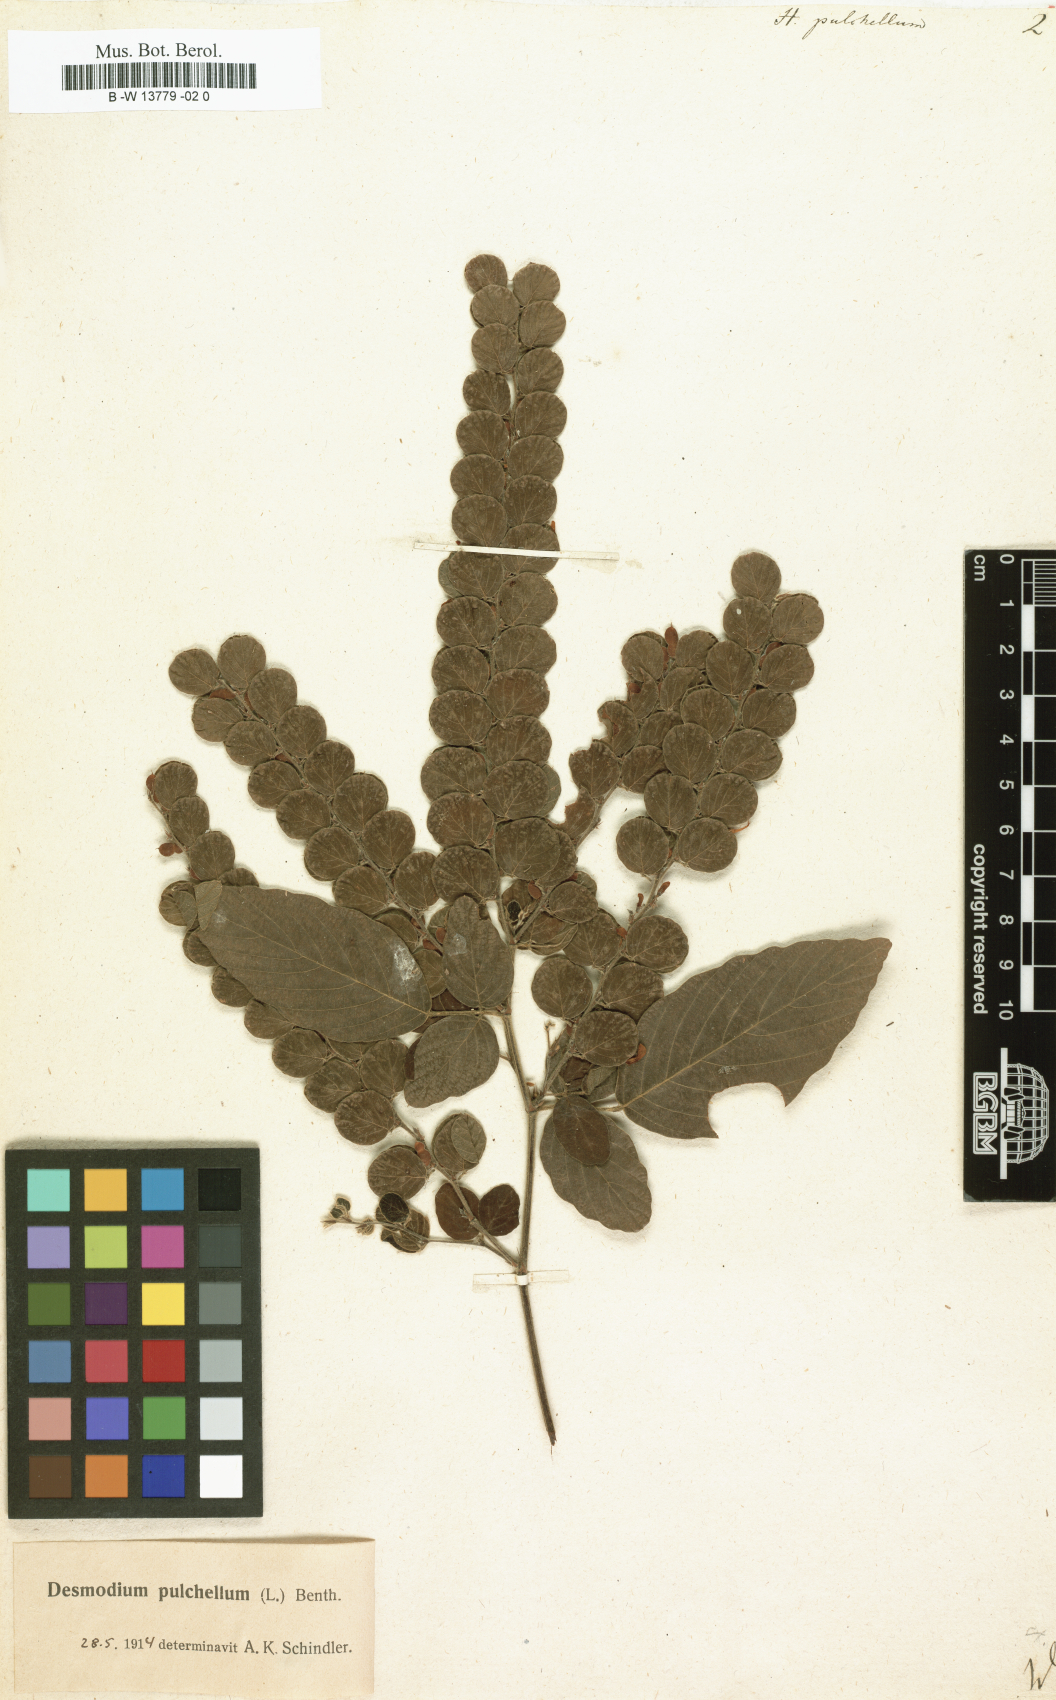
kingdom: Plantae
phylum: Tracheophyta
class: Magnoliopsida
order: Fabales
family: Fabaceae
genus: Phyllodium
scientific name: Phyllodium pulchellum
